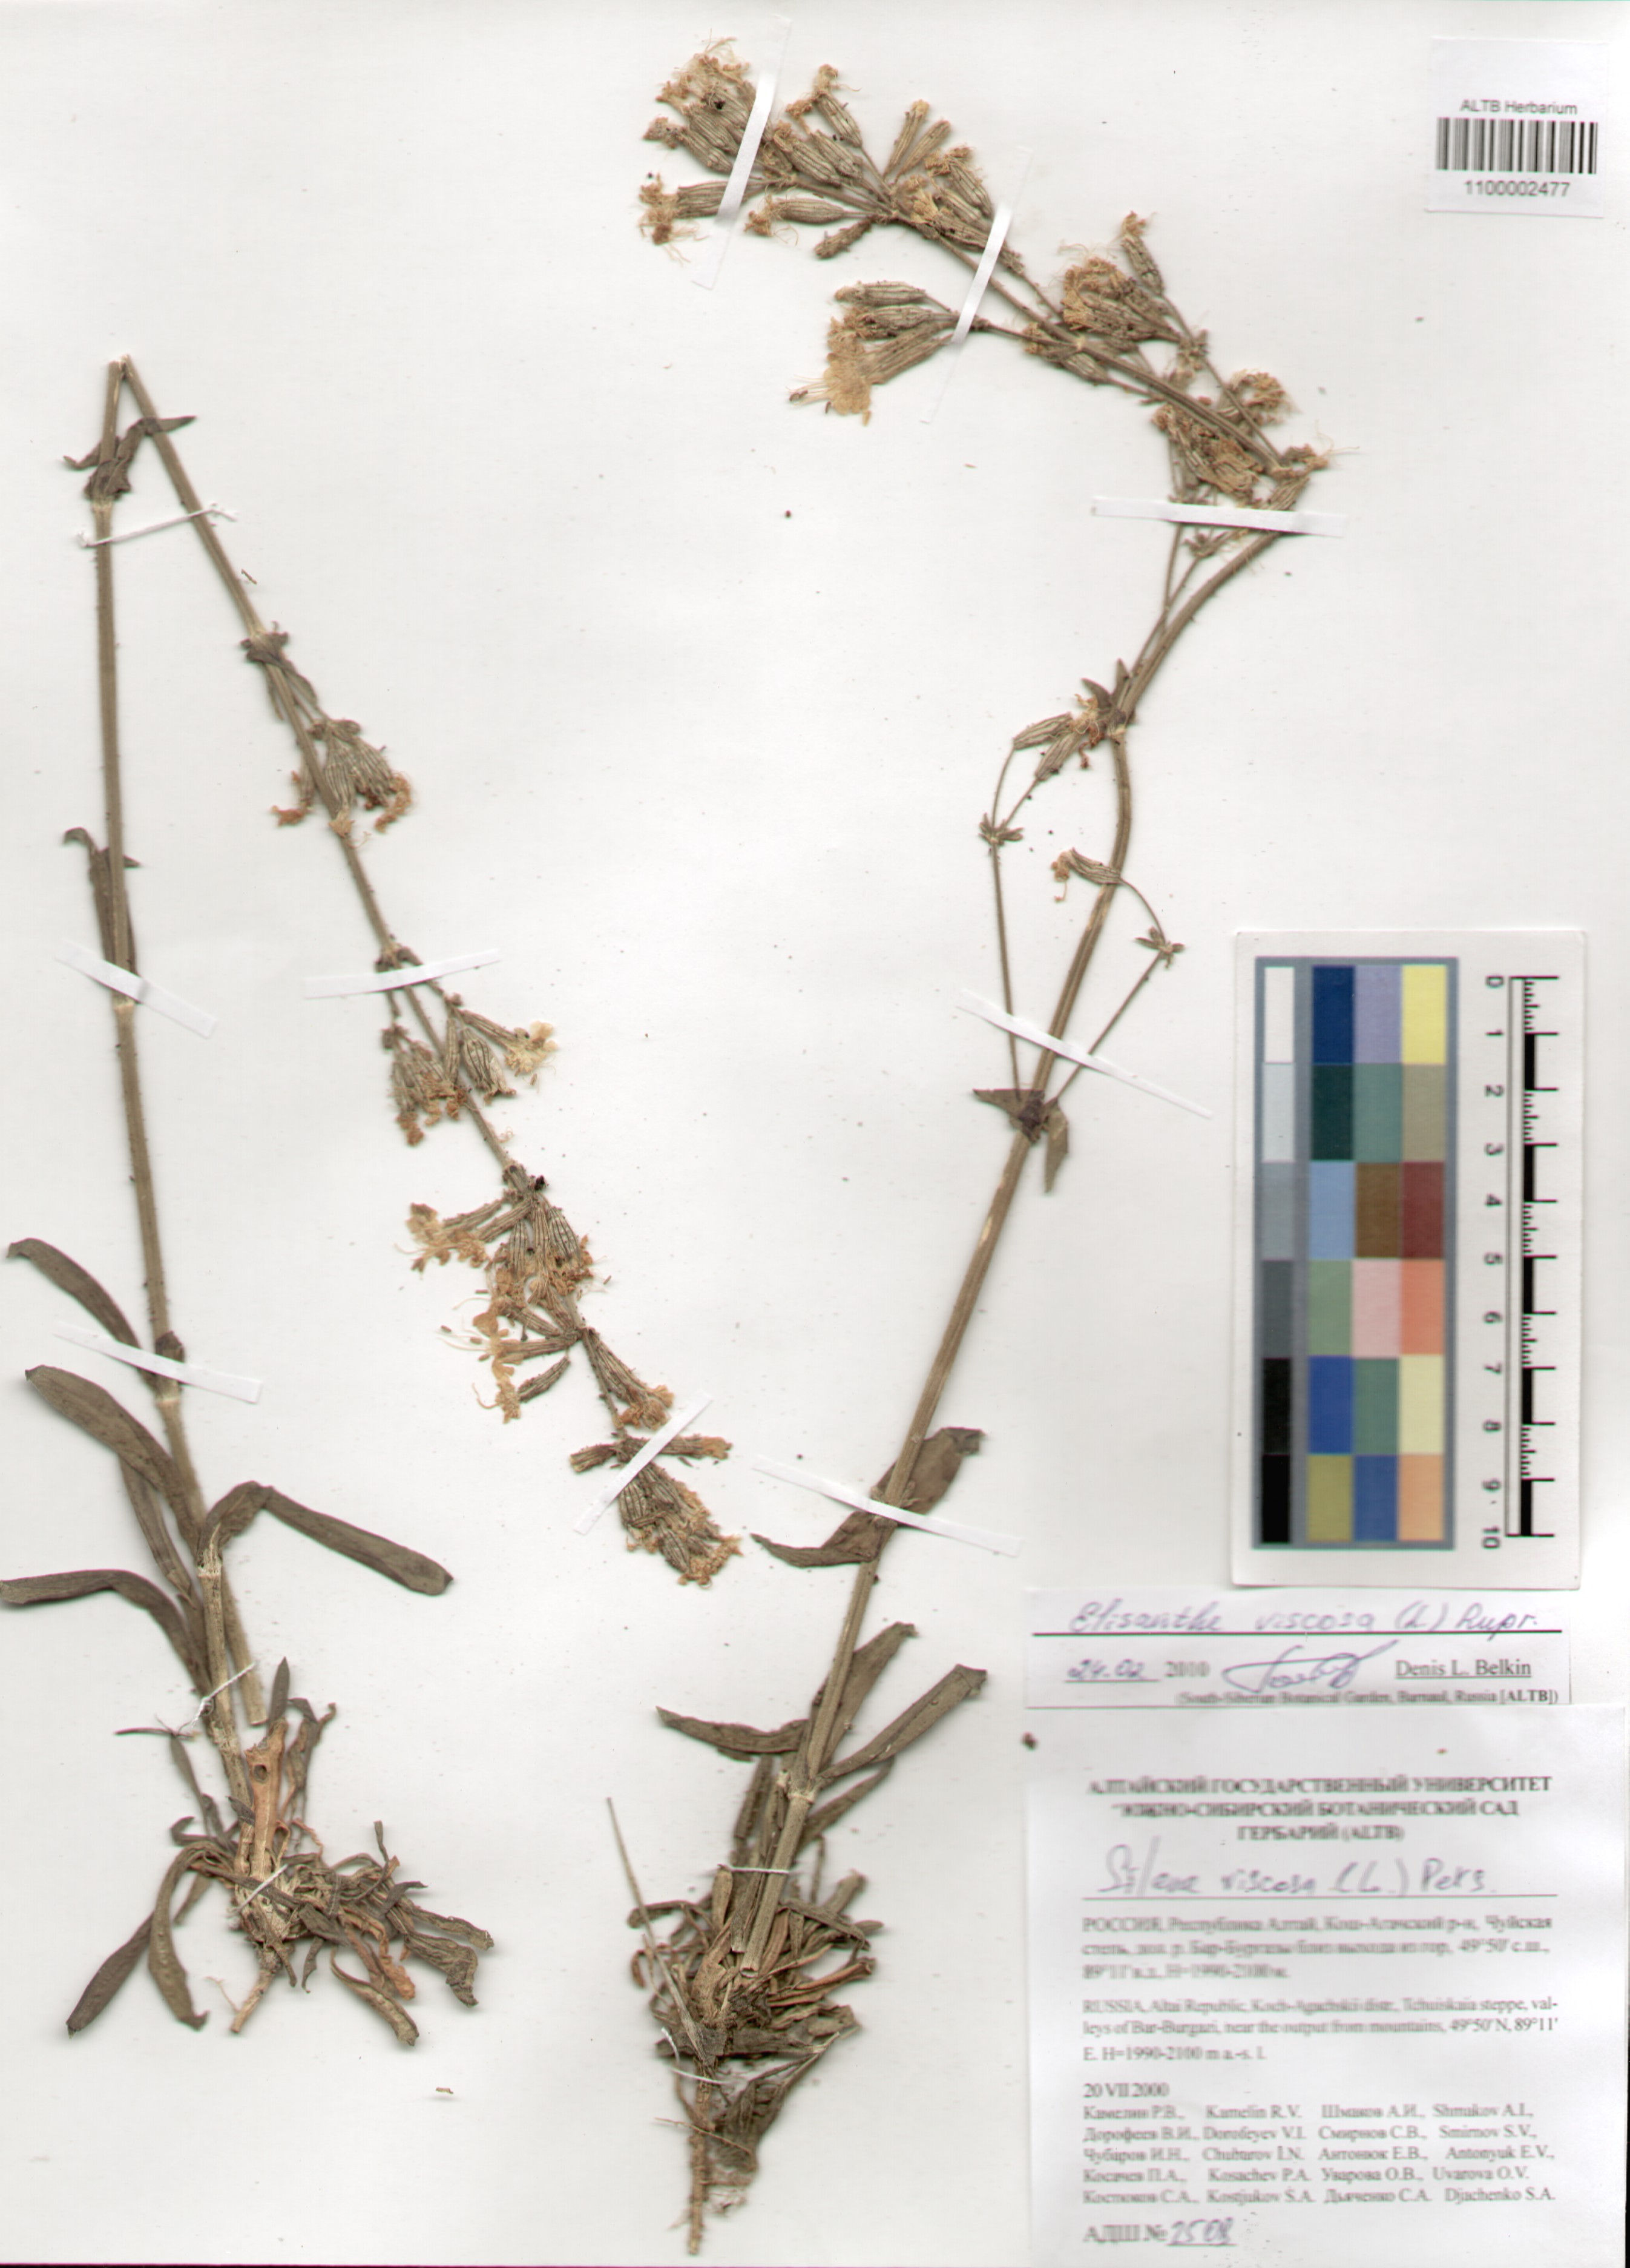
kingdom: Plantae
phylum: Tracheophyta
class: Magnoliopsida
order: Caryophyllales
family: Caryophyllaceae
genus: Silene
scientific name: Silene viscosa
